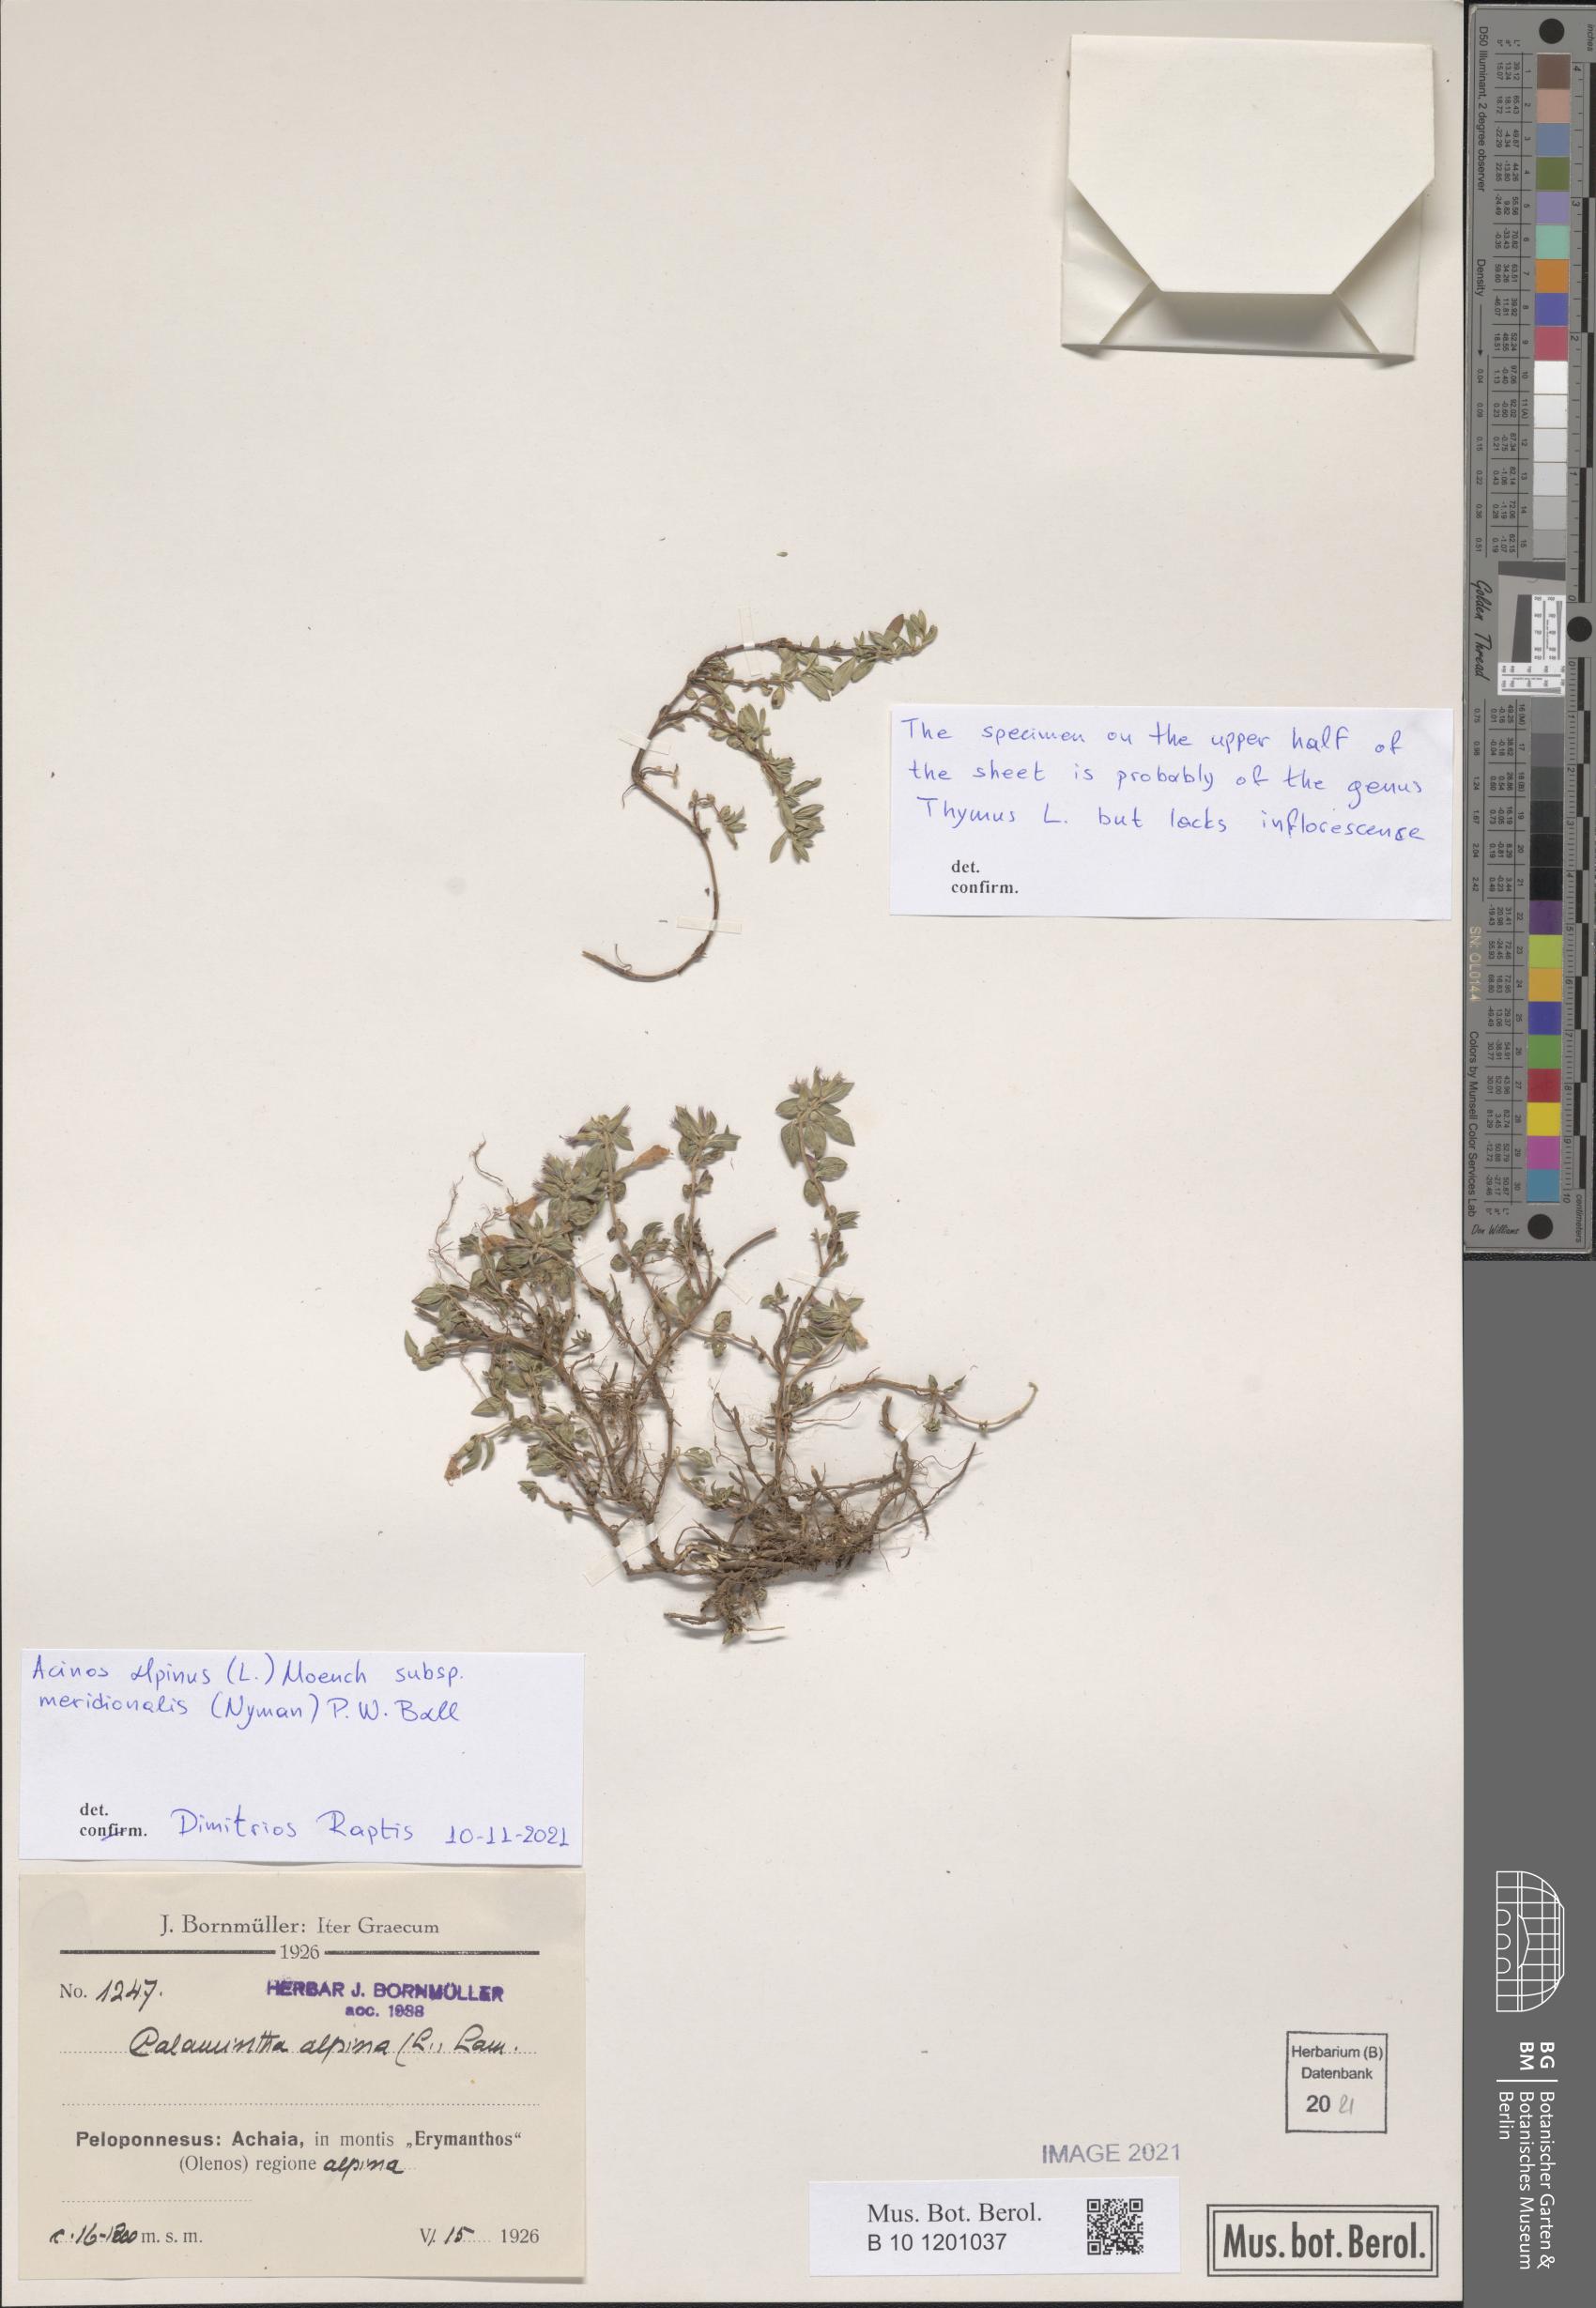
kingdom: Plantae
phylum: Tracheophyta
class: Magnoliopsida
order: Lamiales
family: Lamiaceae
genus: Clinopodium
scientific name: Clinopodium alpinum
